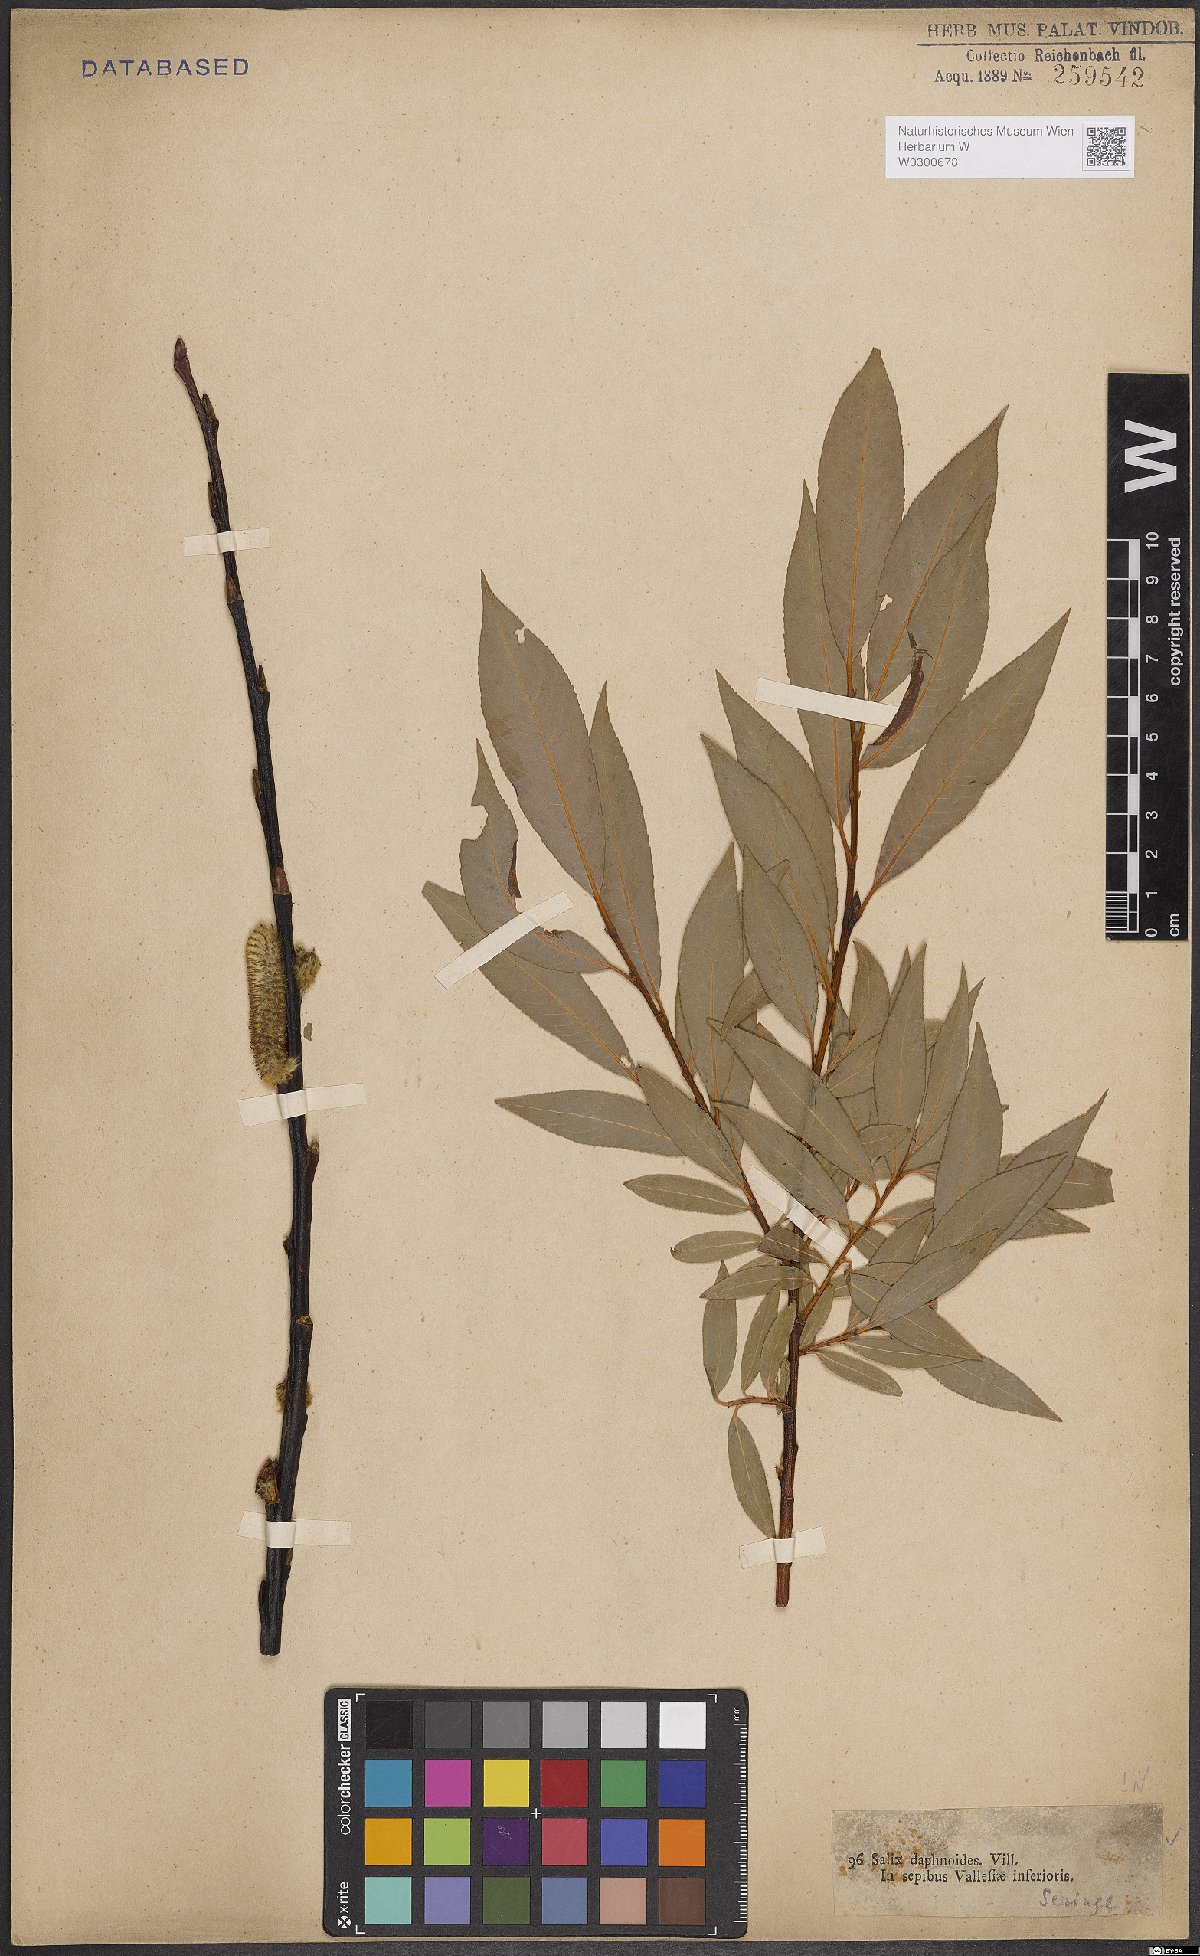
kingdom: Plantae
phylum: Tracheophyta
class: Magnoliopsida
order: Malpighiales
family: Salicaceae
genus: Salix
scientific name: Salix daphnoides
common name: European violet-willow
